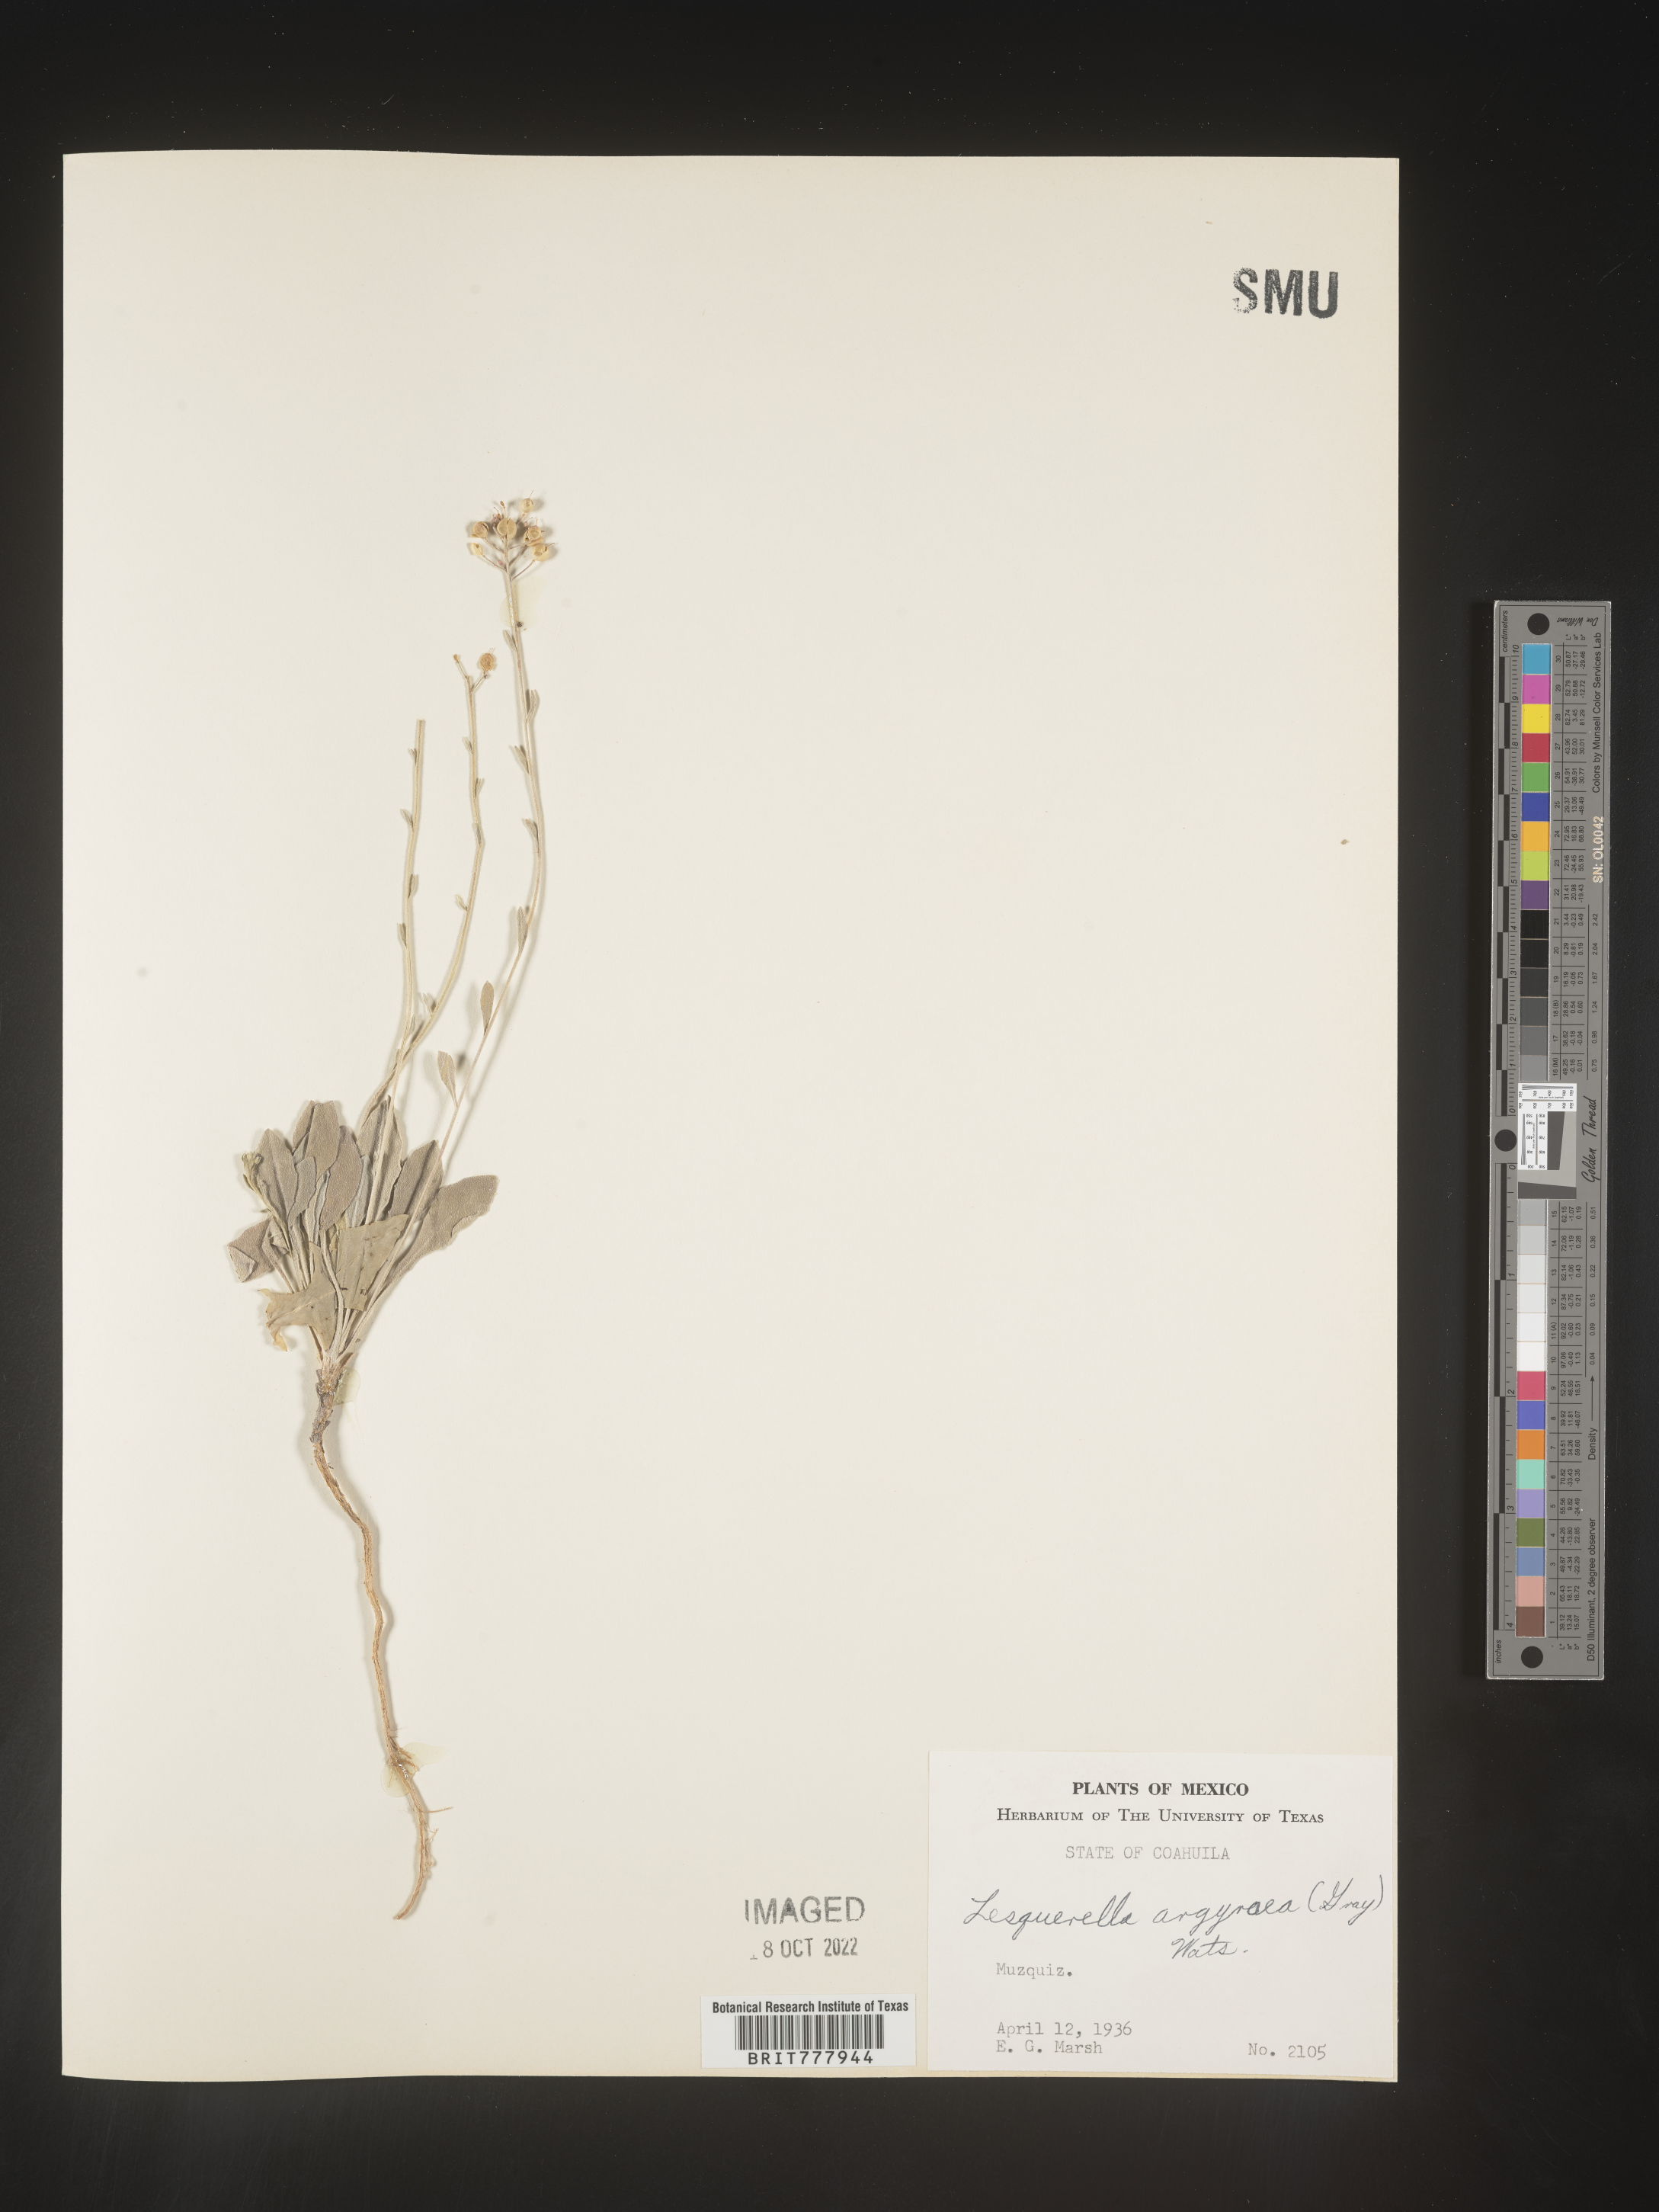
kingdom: Chromista
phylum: Cercozoa
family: Psammonobiotidae
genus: Lesquerella
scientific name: Lesquerella
